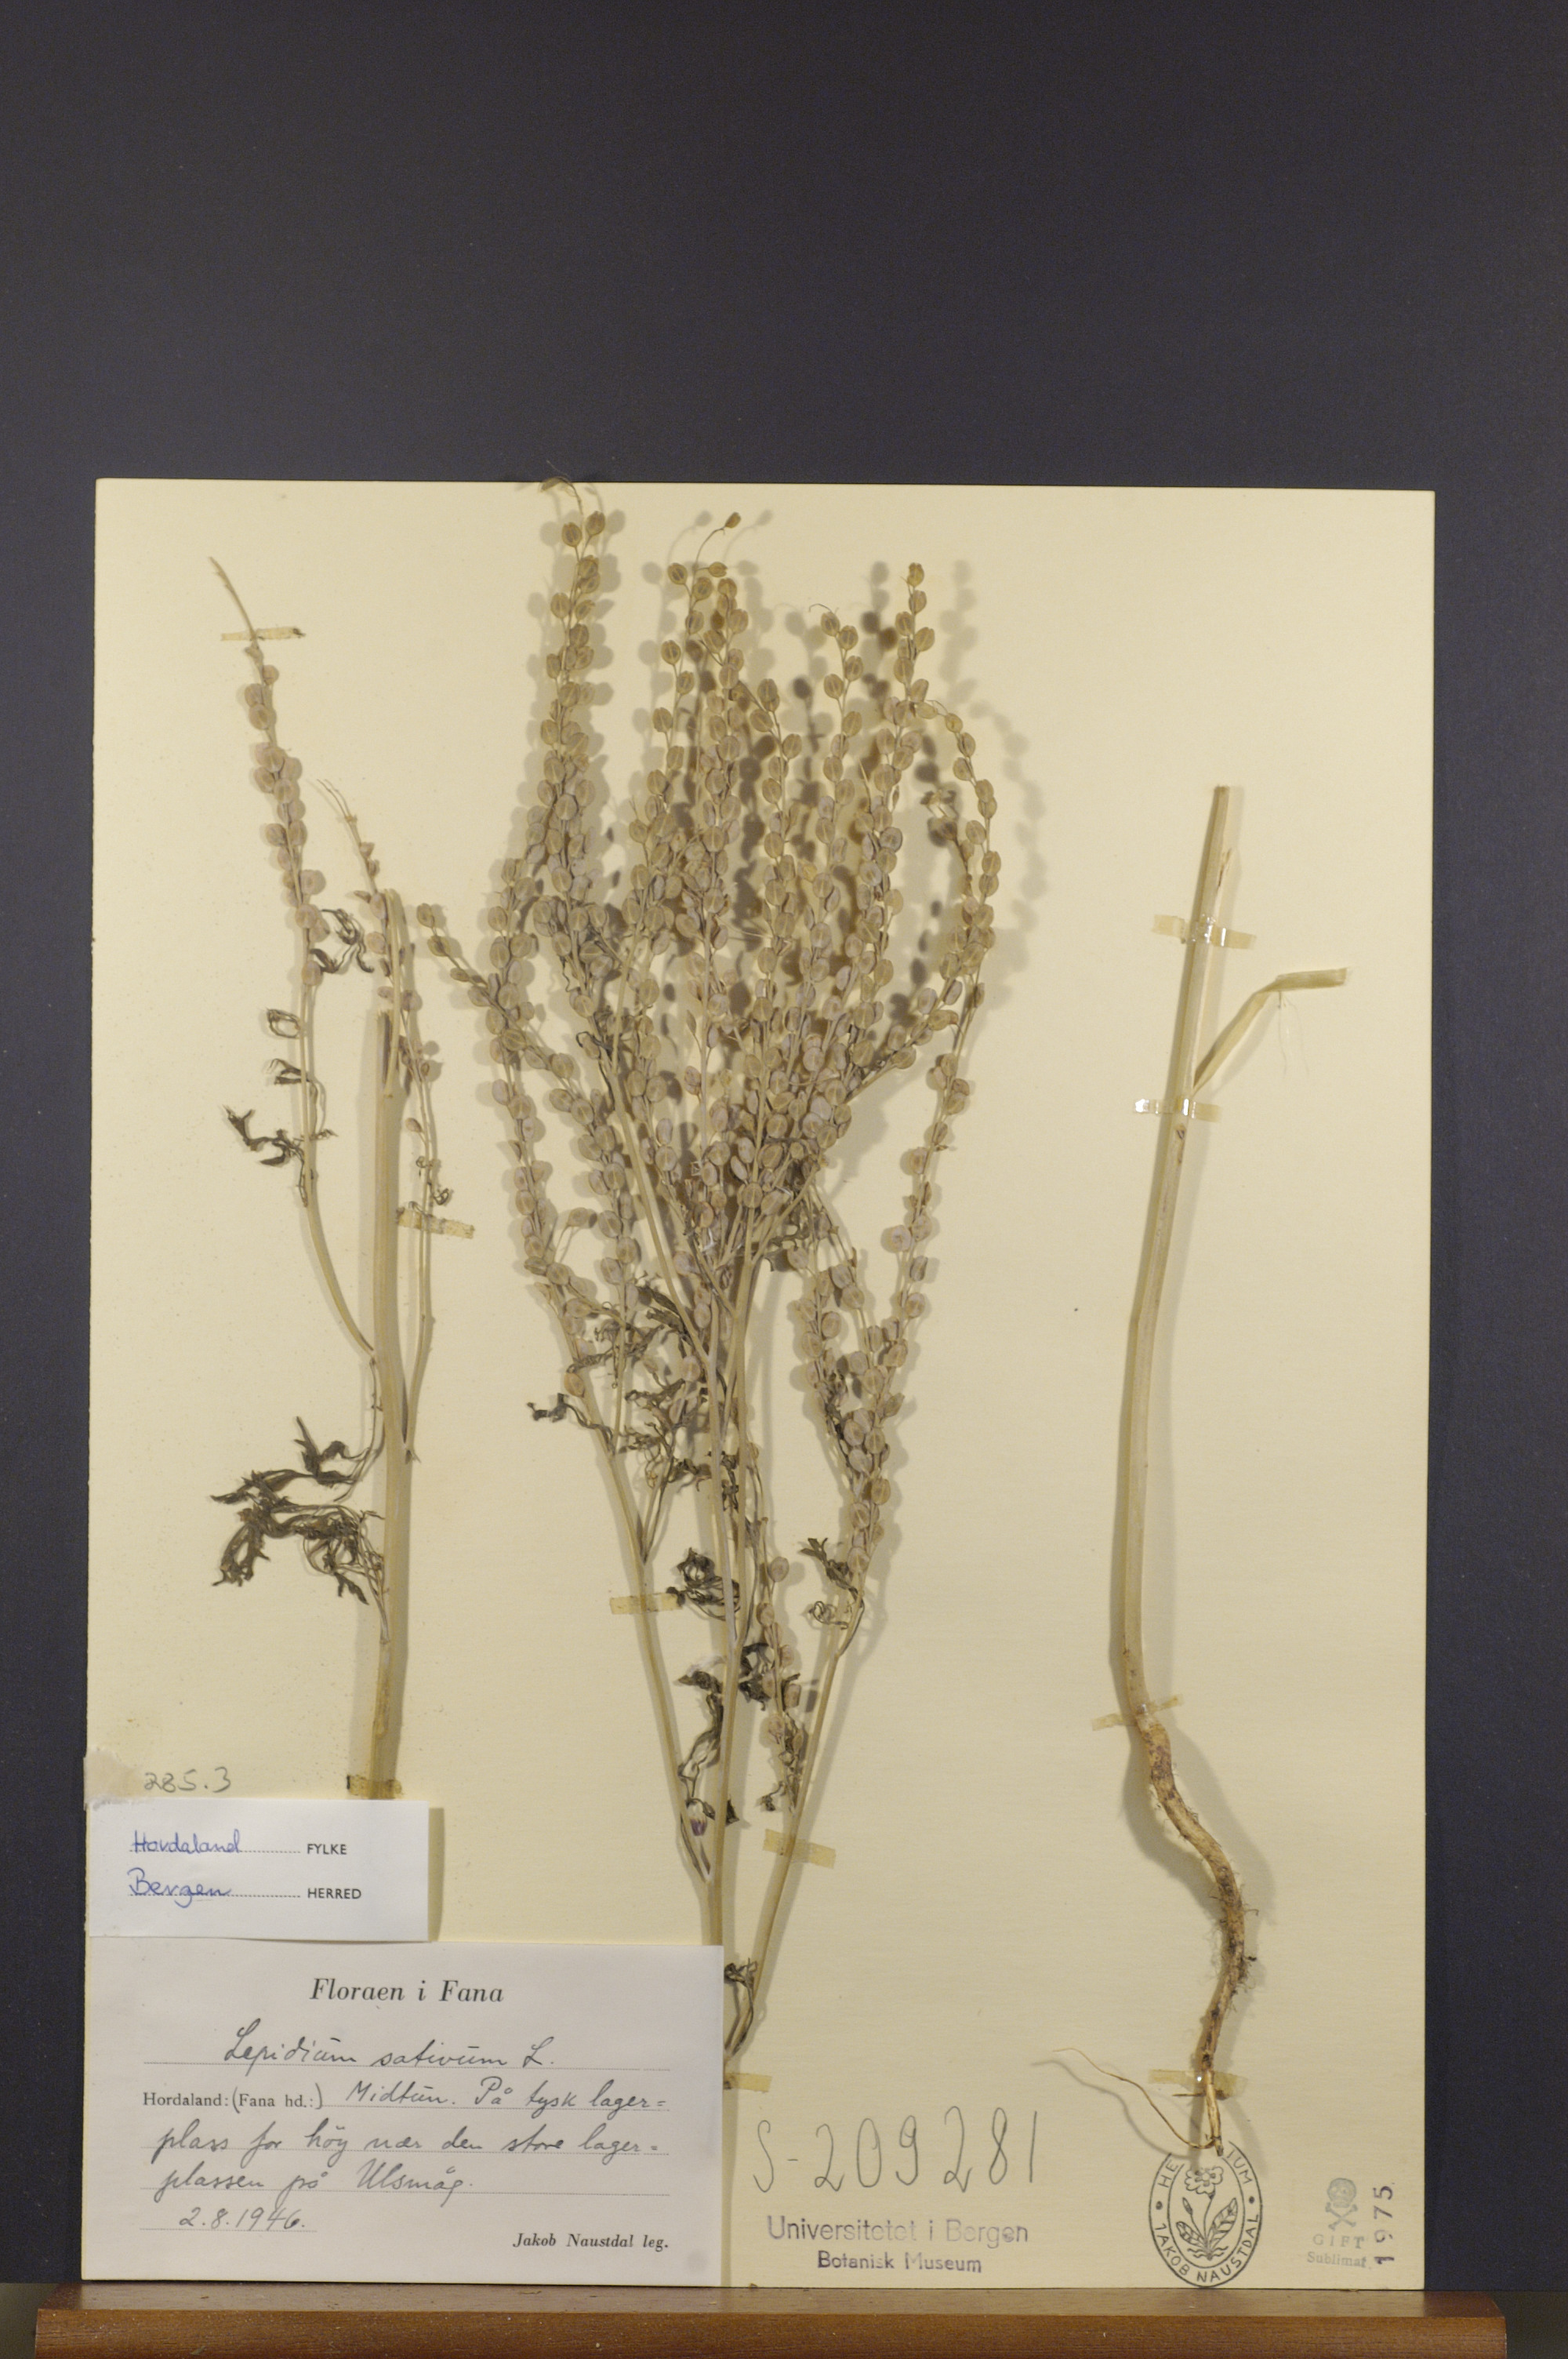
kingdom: Plantae
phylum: Tracheophyta
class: Magnoliopsida
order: Brassicales
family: Brassicaceae
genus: Lepidium
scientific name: Lepidium sativum
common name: Garden cress
